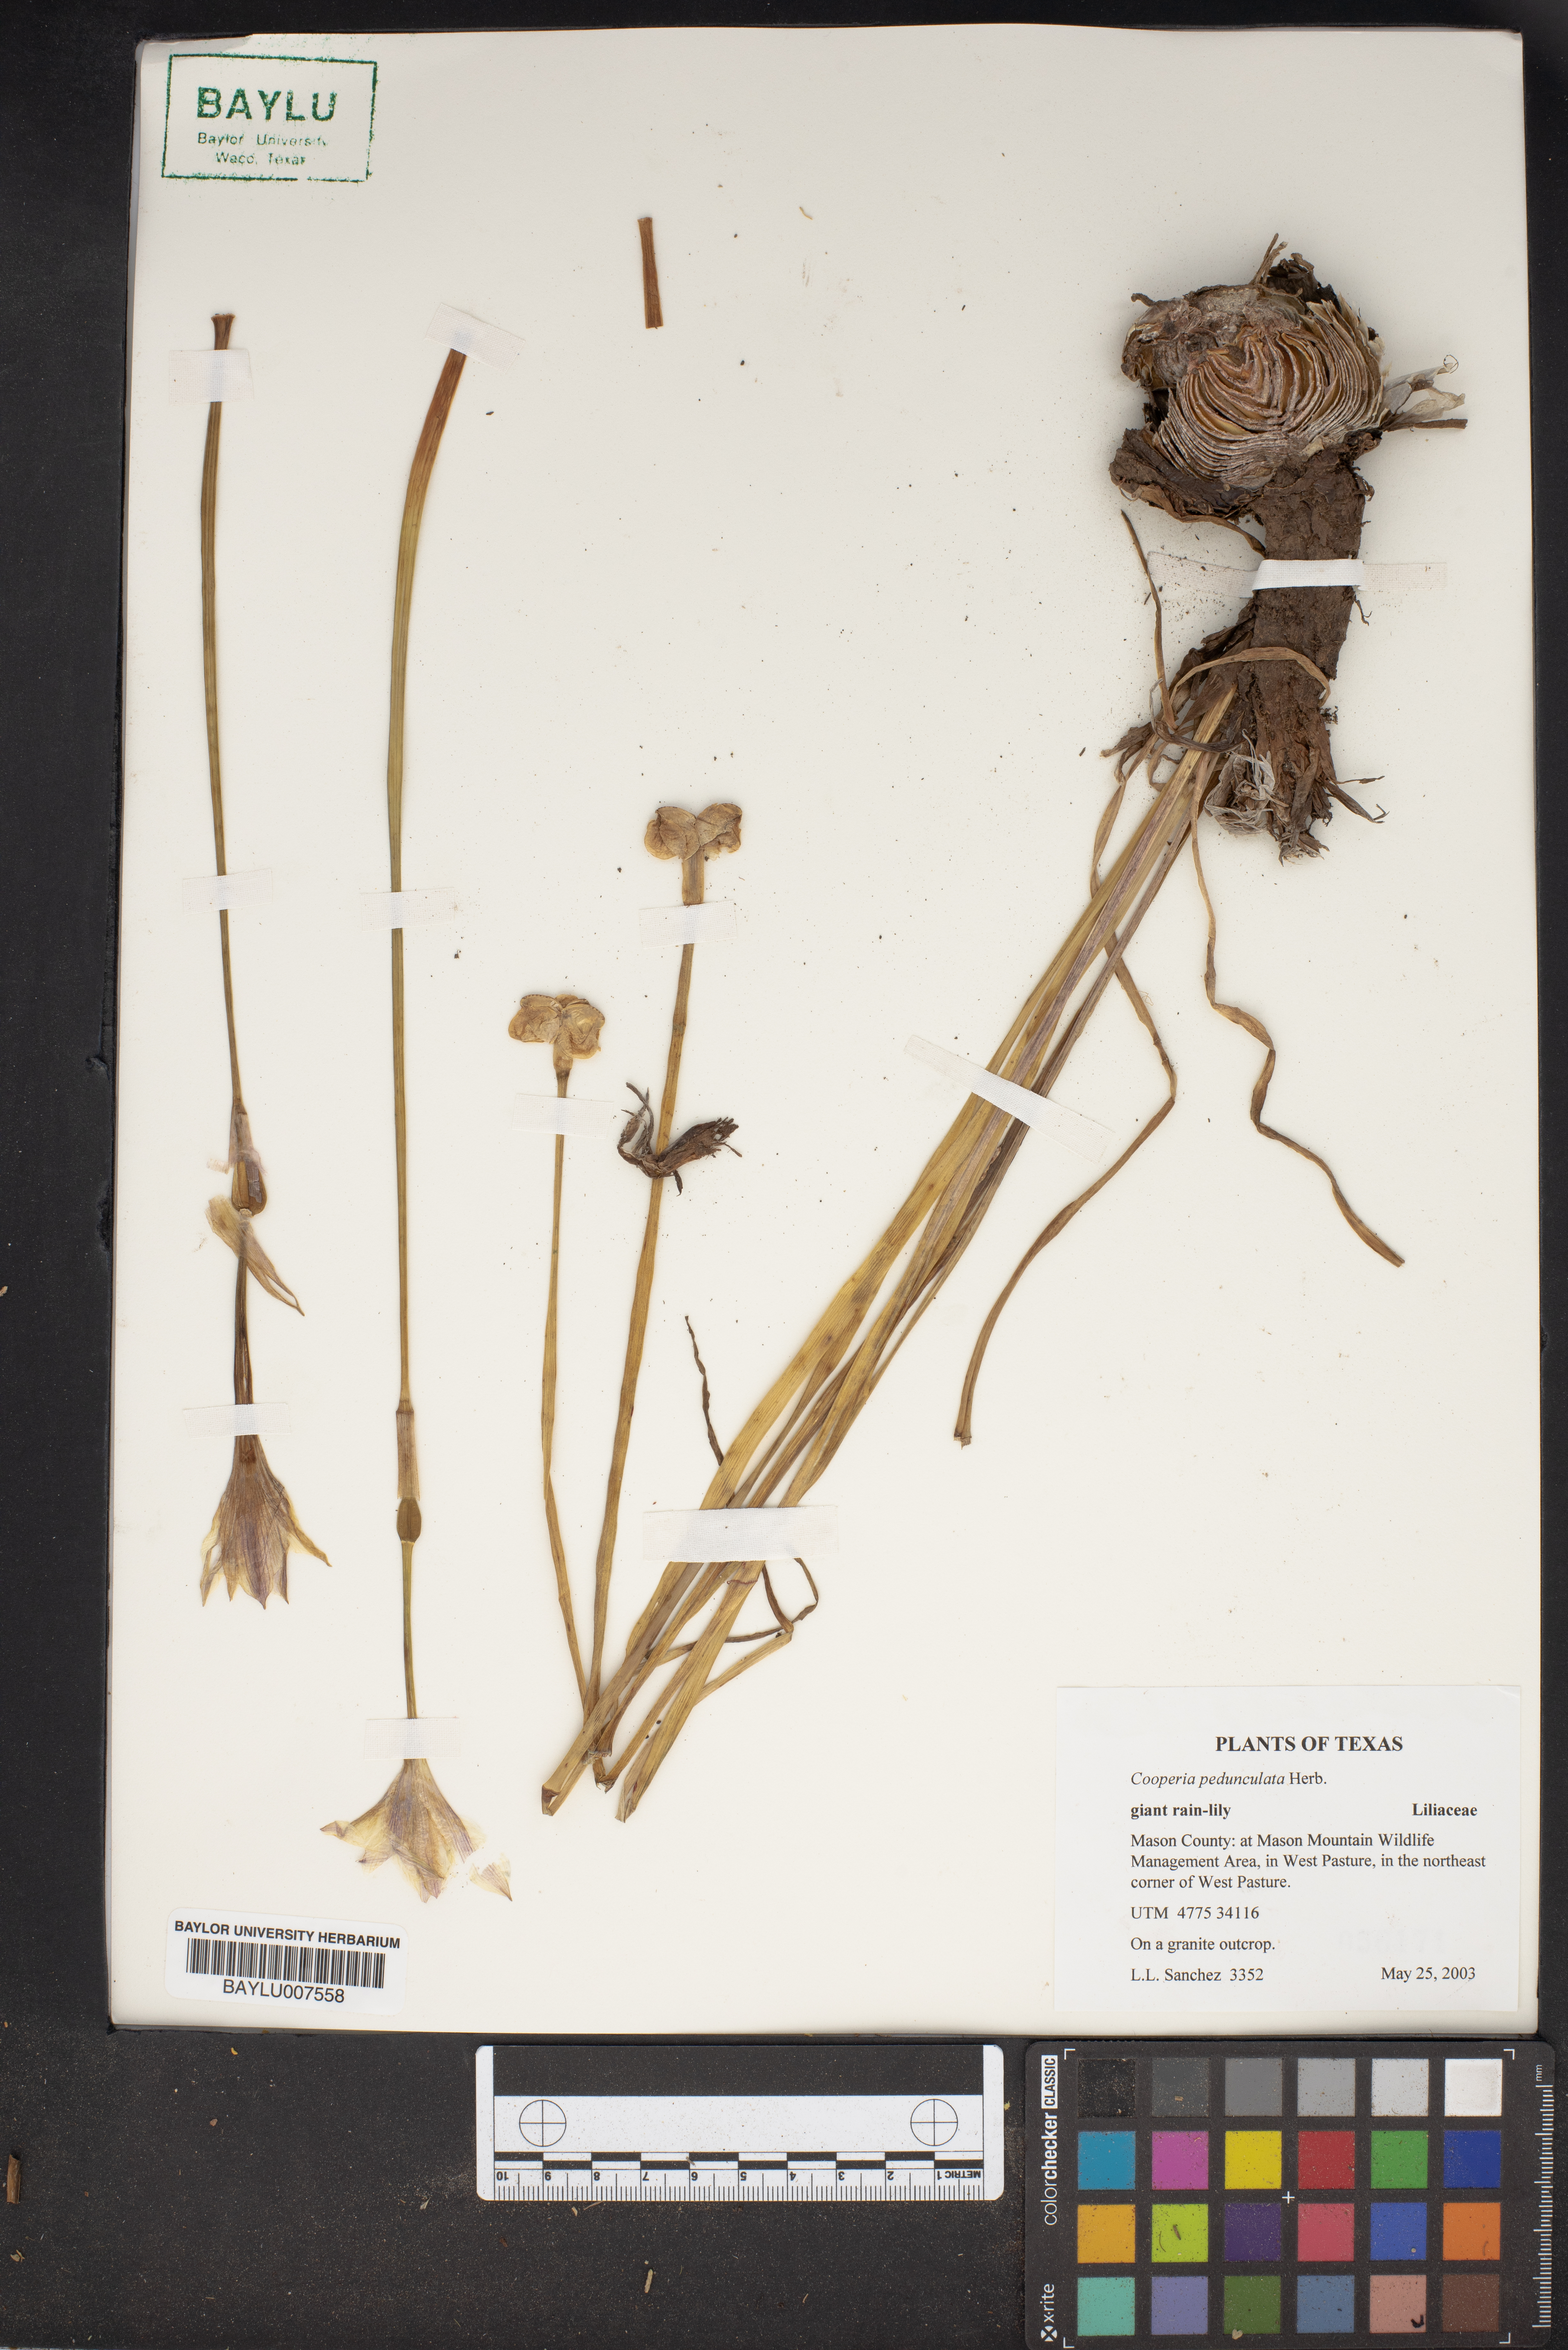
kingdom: Plantae
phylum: Tracheophyta
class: Liliopsida
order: Asparagales
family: Amaryllidaceae
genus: Zephyranthes
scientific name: Zephyranthes drummondii
